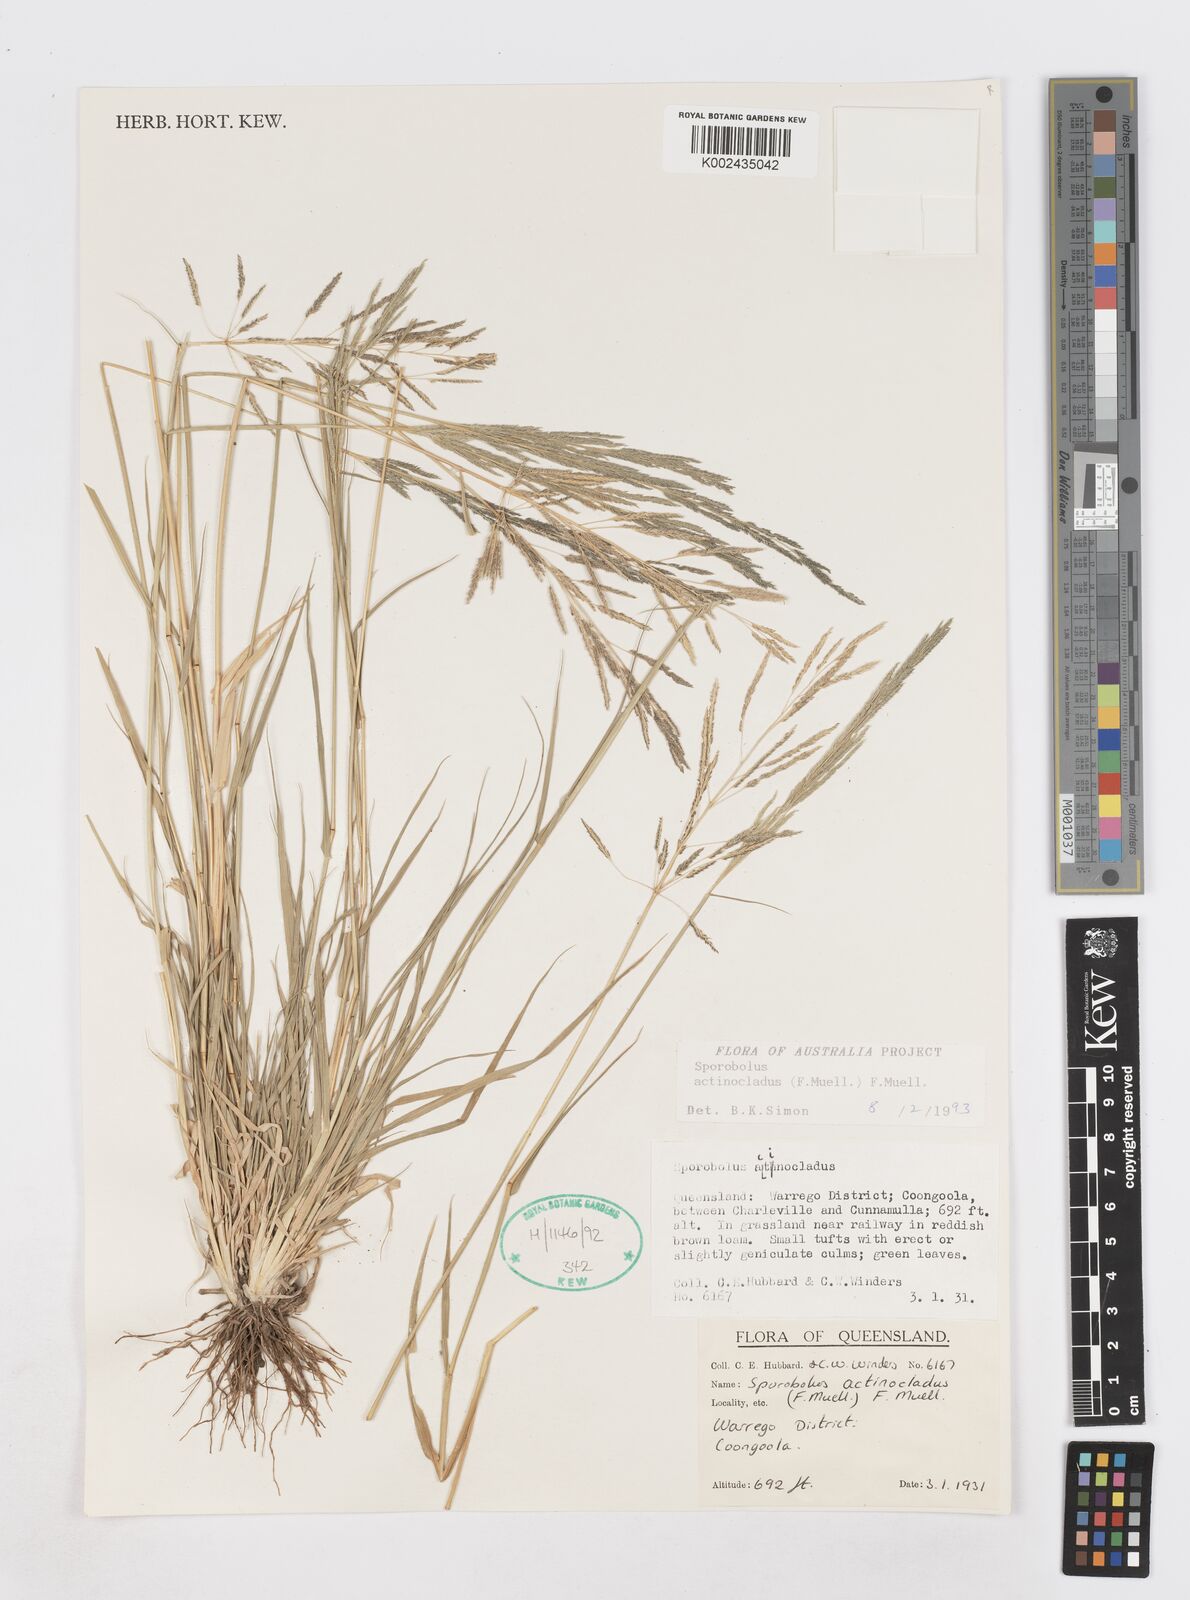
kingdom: Plantae
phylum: Tracheophyta
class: Liliopsida
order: Poales
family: Poaceae
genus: Sporobolus
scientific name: Sporobolus actinocladus
